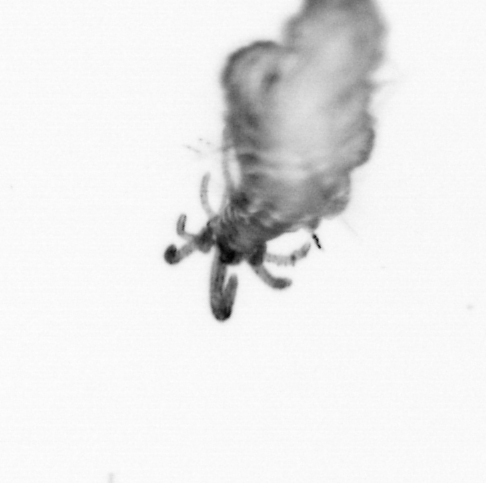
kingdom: Animalia
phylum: Annelida
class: Polychaeta
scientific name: Polychaeta
